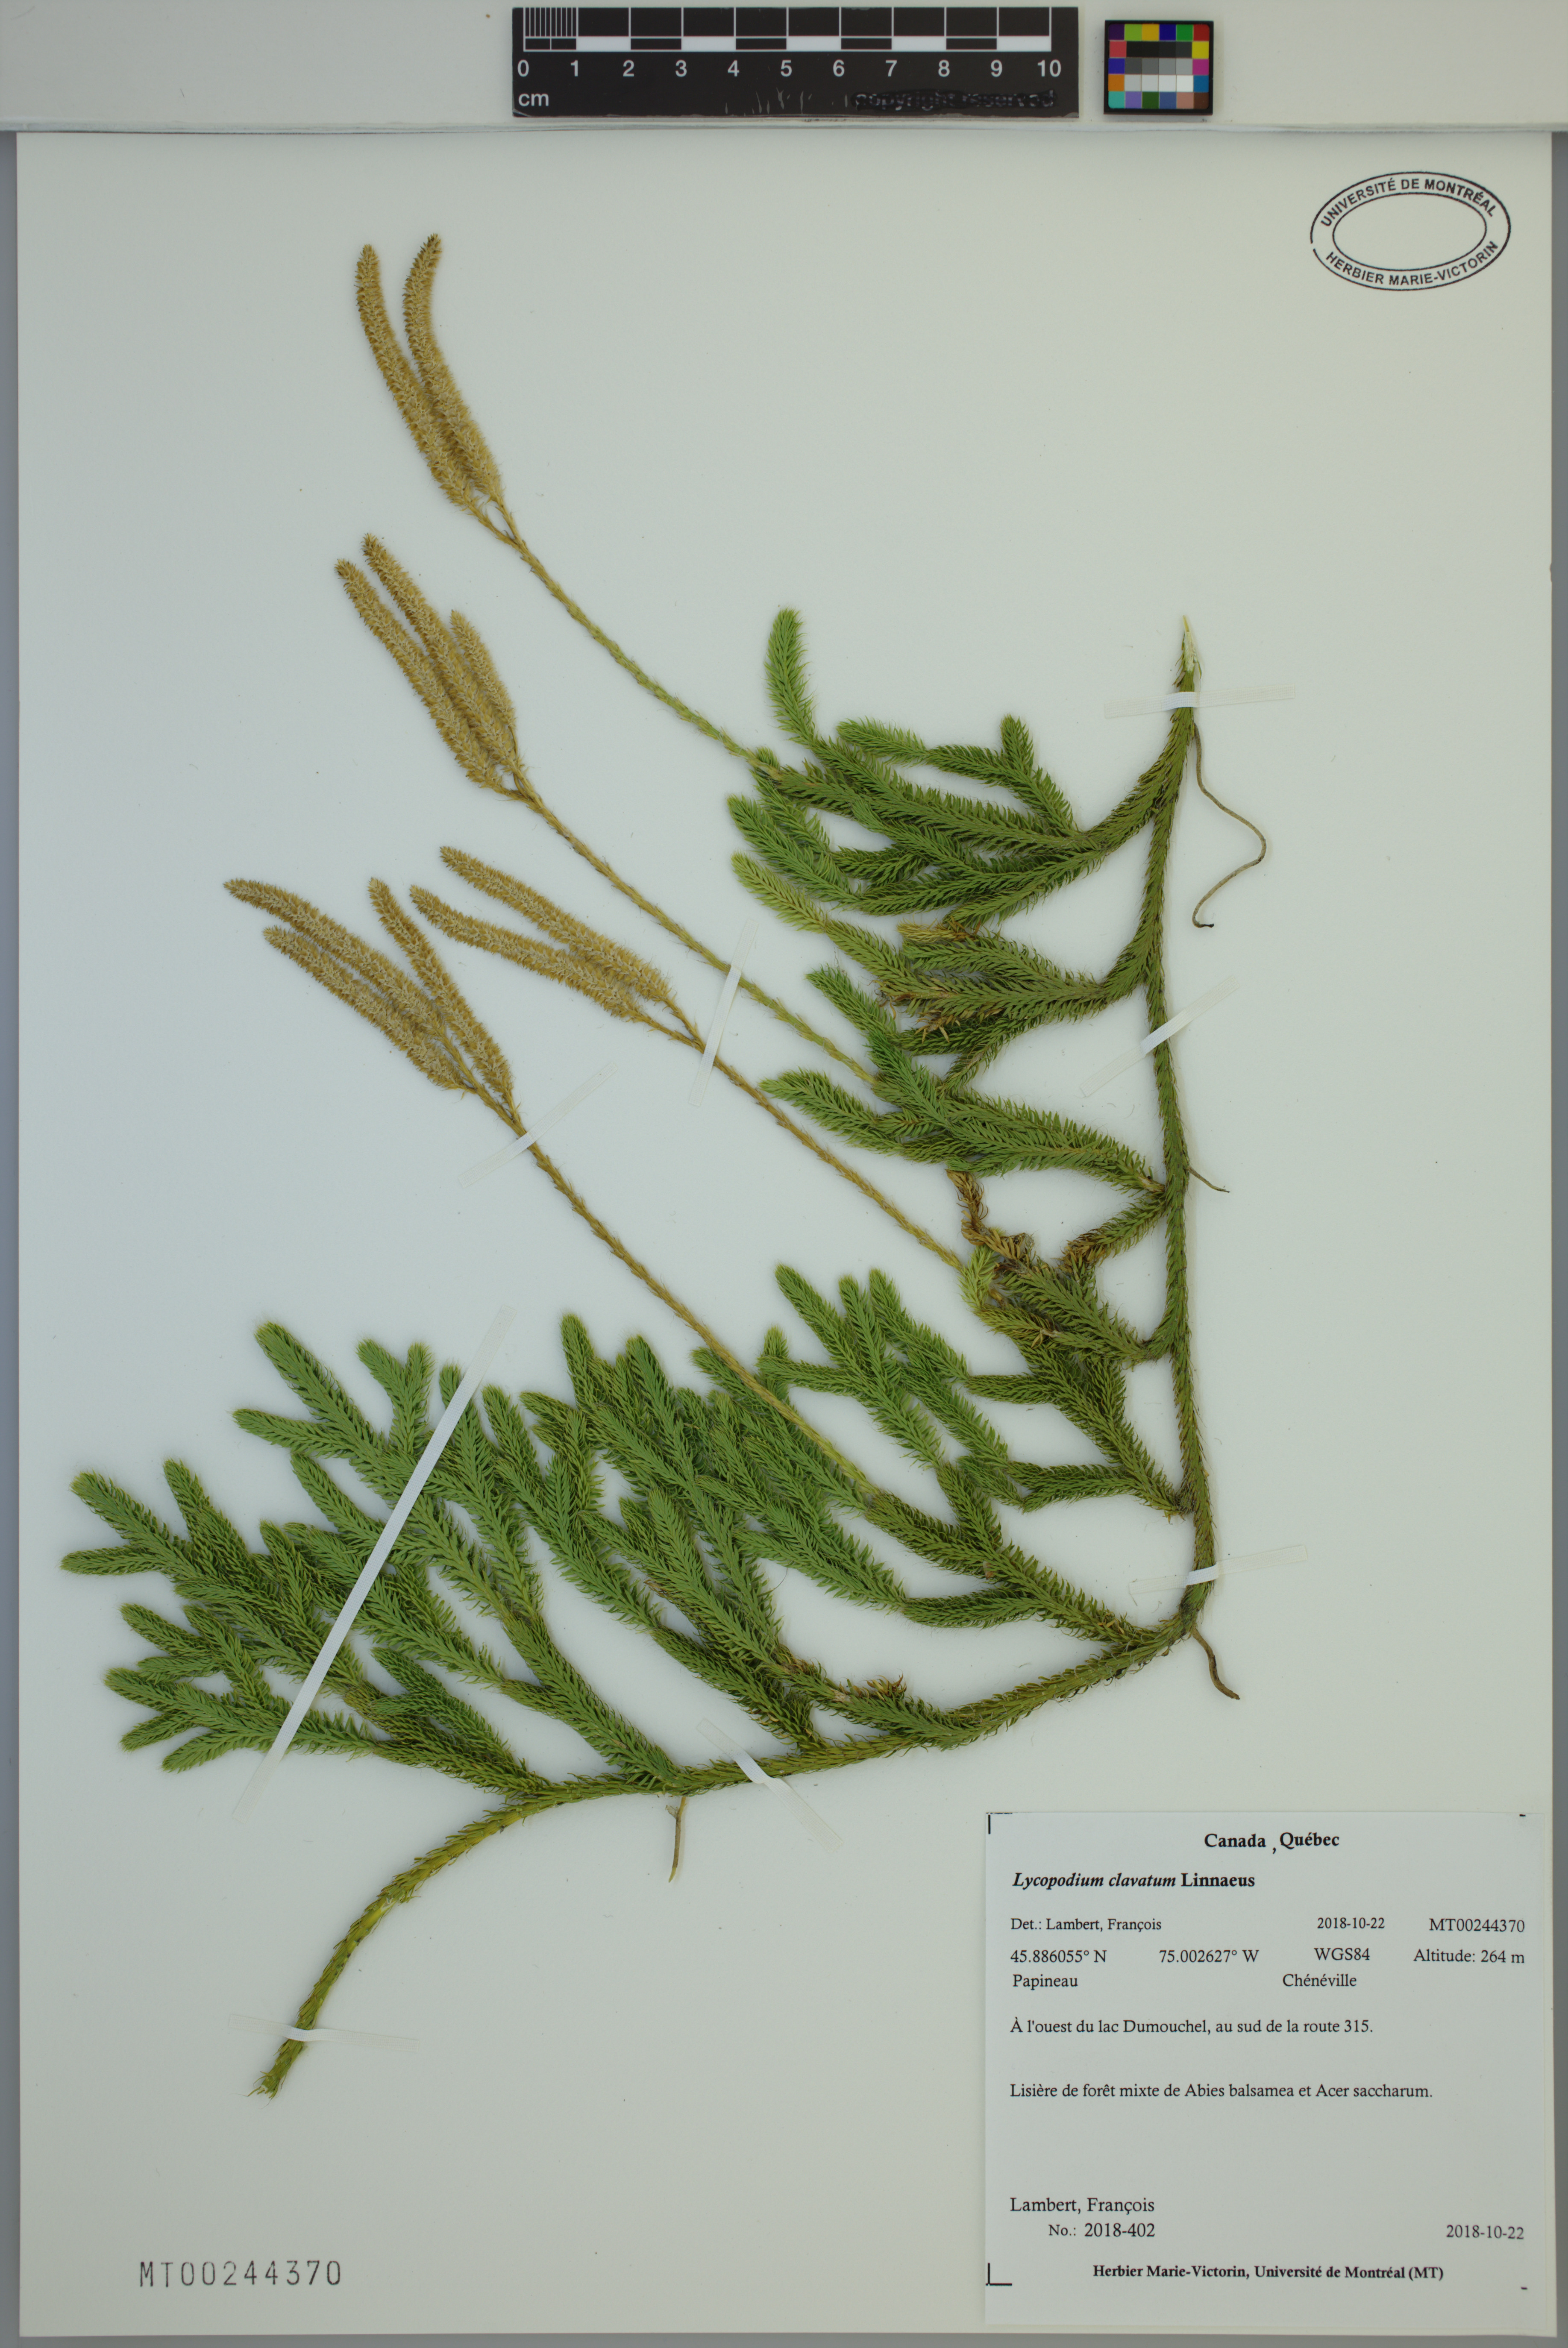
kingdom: Plantae
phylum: Tracheophyta
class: Lycopodiopsida
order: Lycopodiales
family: Lycopodiaceae
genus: Lycopodium
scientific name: Lycopodium clavatum
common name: Stag's-horn clubmoss
